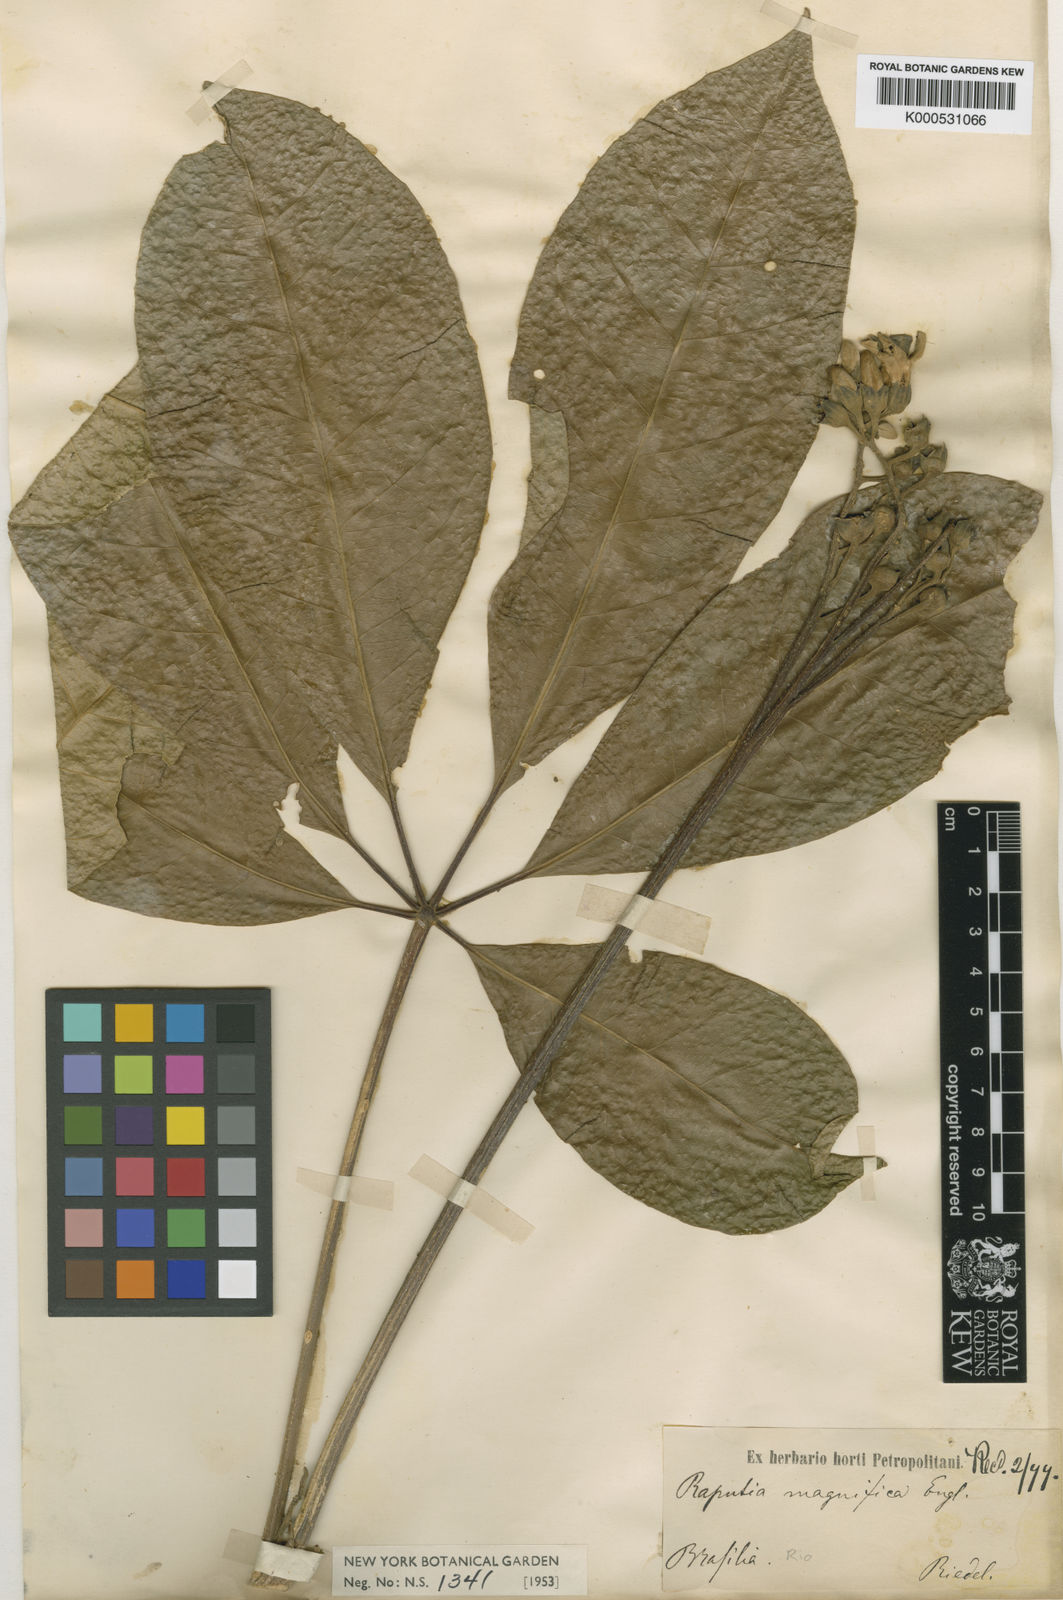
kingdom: Plantae
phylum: Tracheophyta
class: Magnoliopsida
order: Sapindales
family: Rutaceae
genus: Neoraputia
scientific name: Neoraputia
